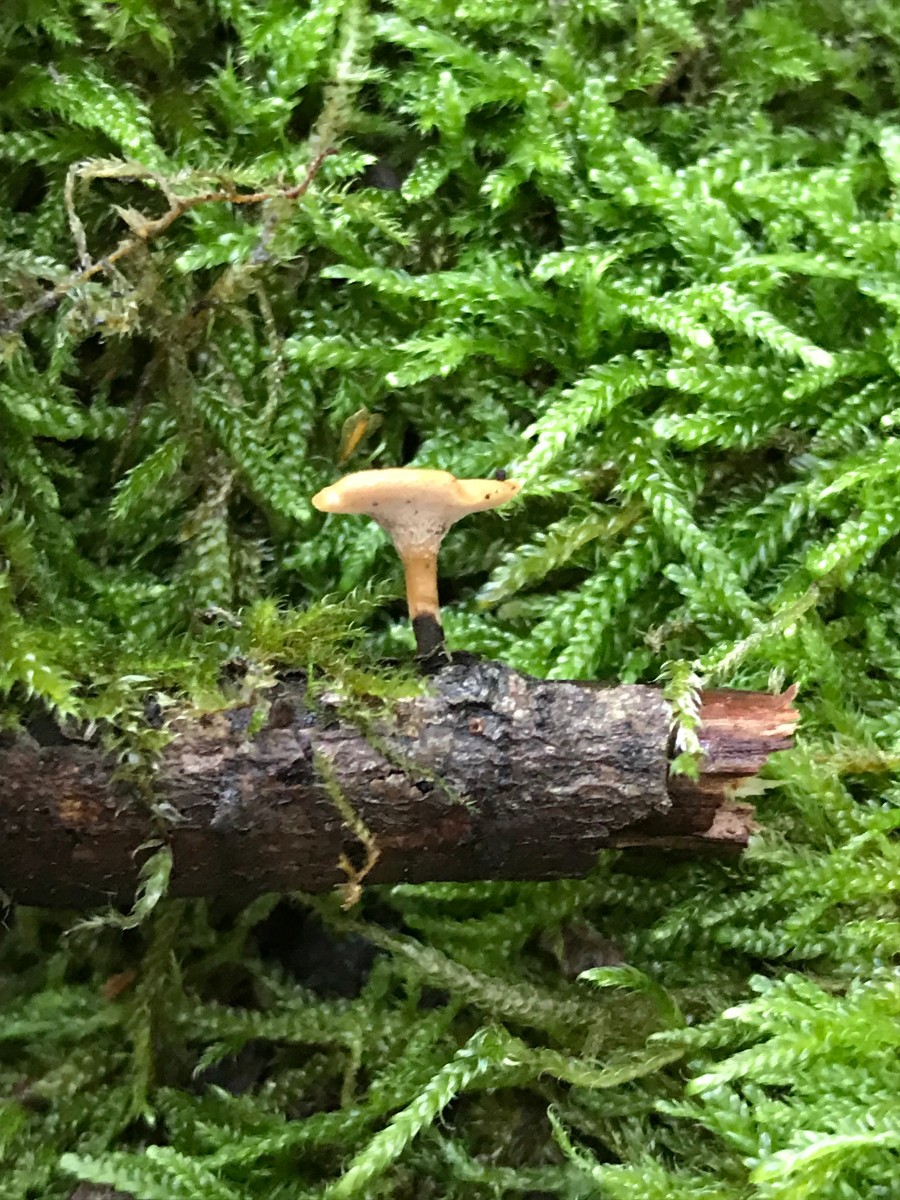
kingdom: Fungi
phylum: Basidiomycota
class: Agaricomycetes
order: Polyporales
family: Polyporaceae
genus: Cerioporus
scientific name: Cerioporus varius
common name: foranderlig stilkporesvamp
